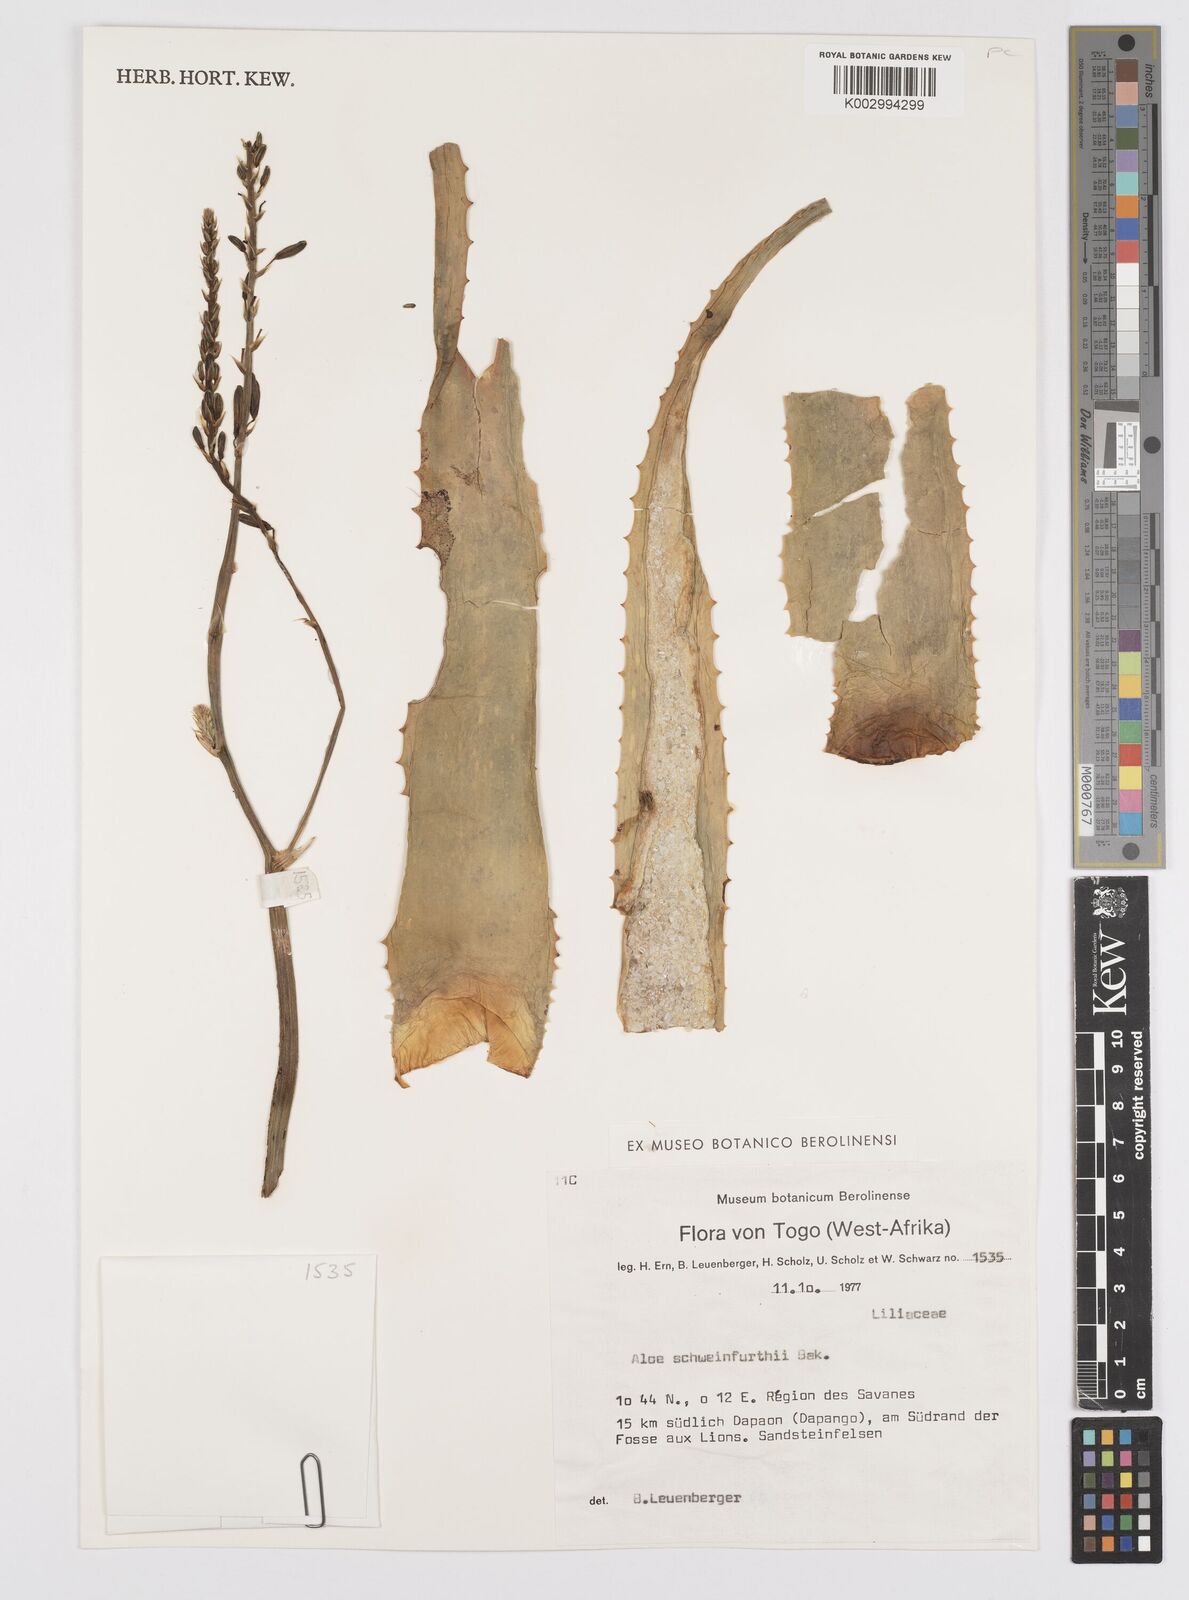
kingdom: Plantae
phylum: Tracheophyta
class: Liliopsida
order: Asparagales
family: Asphodelaceae
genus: Aloe
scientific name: Aloe schweinfurthii
